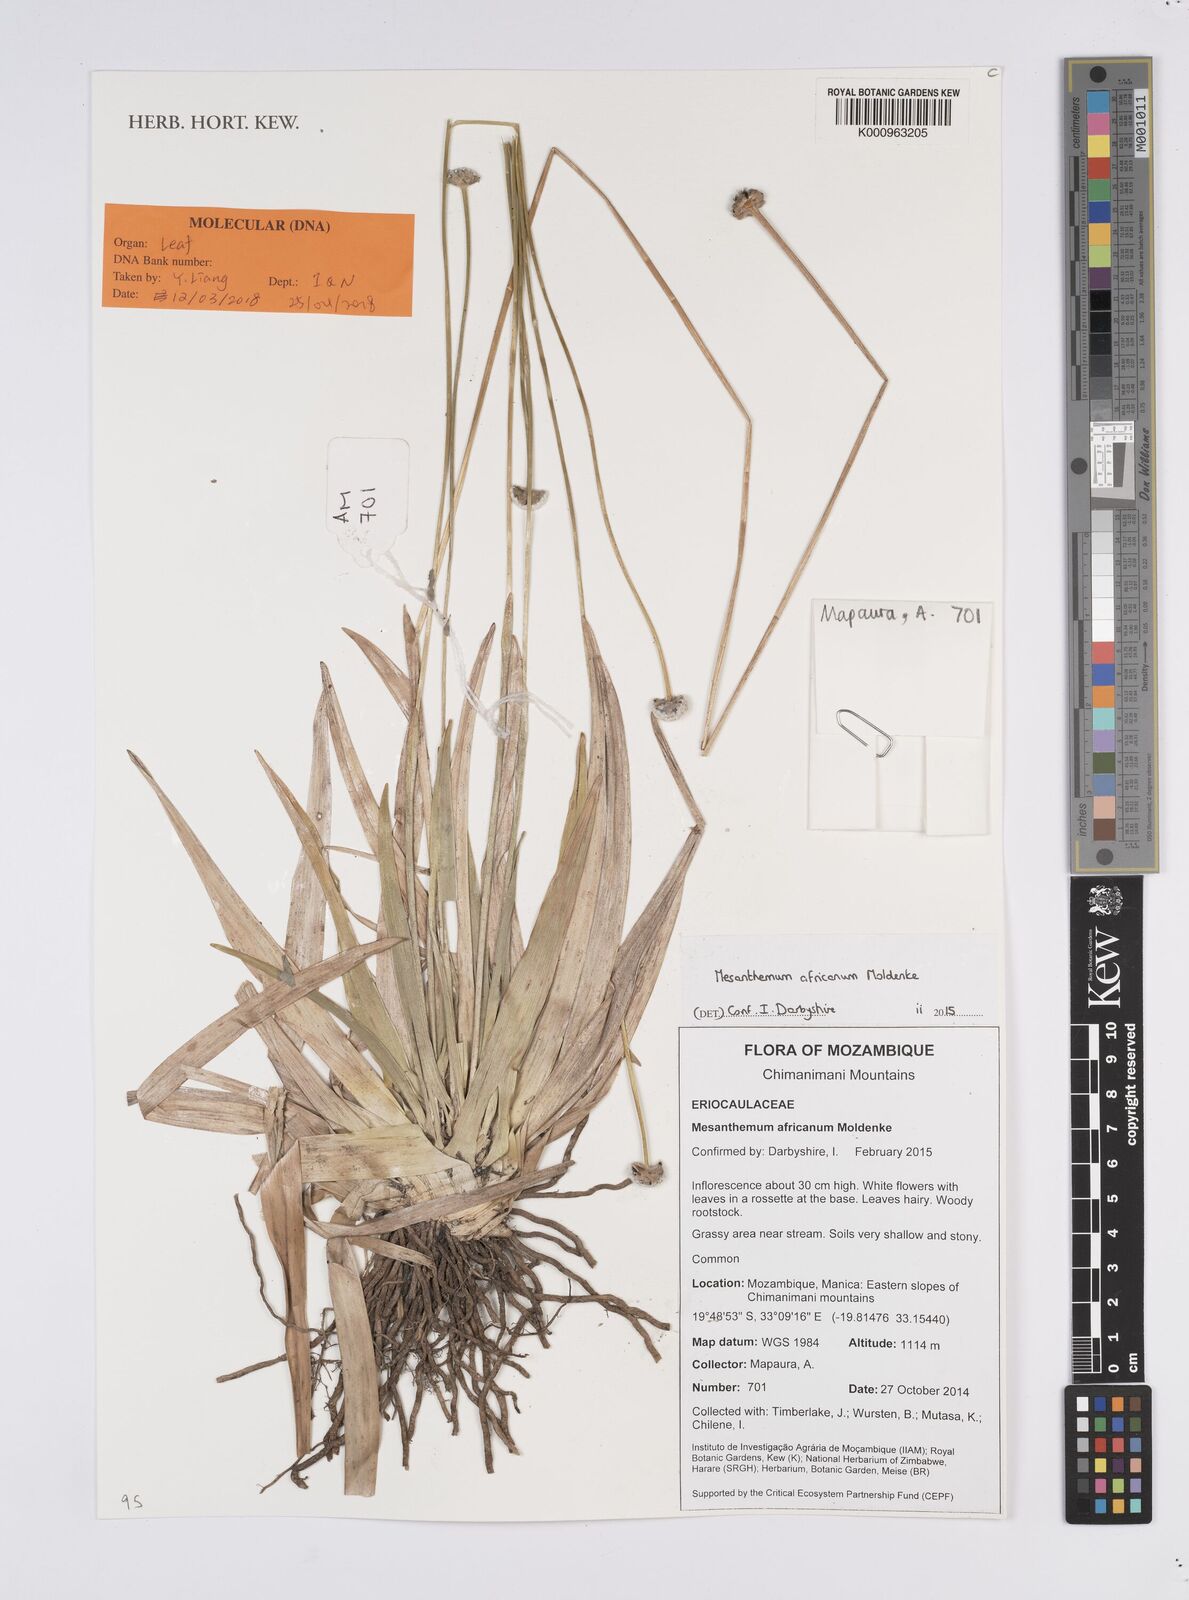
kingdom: Plantae
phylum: Tracheophyta
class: Liliopsida
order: Poales
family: Eriocaulaceae
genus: Mesanthemum
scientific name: Mesanthemum africanum
